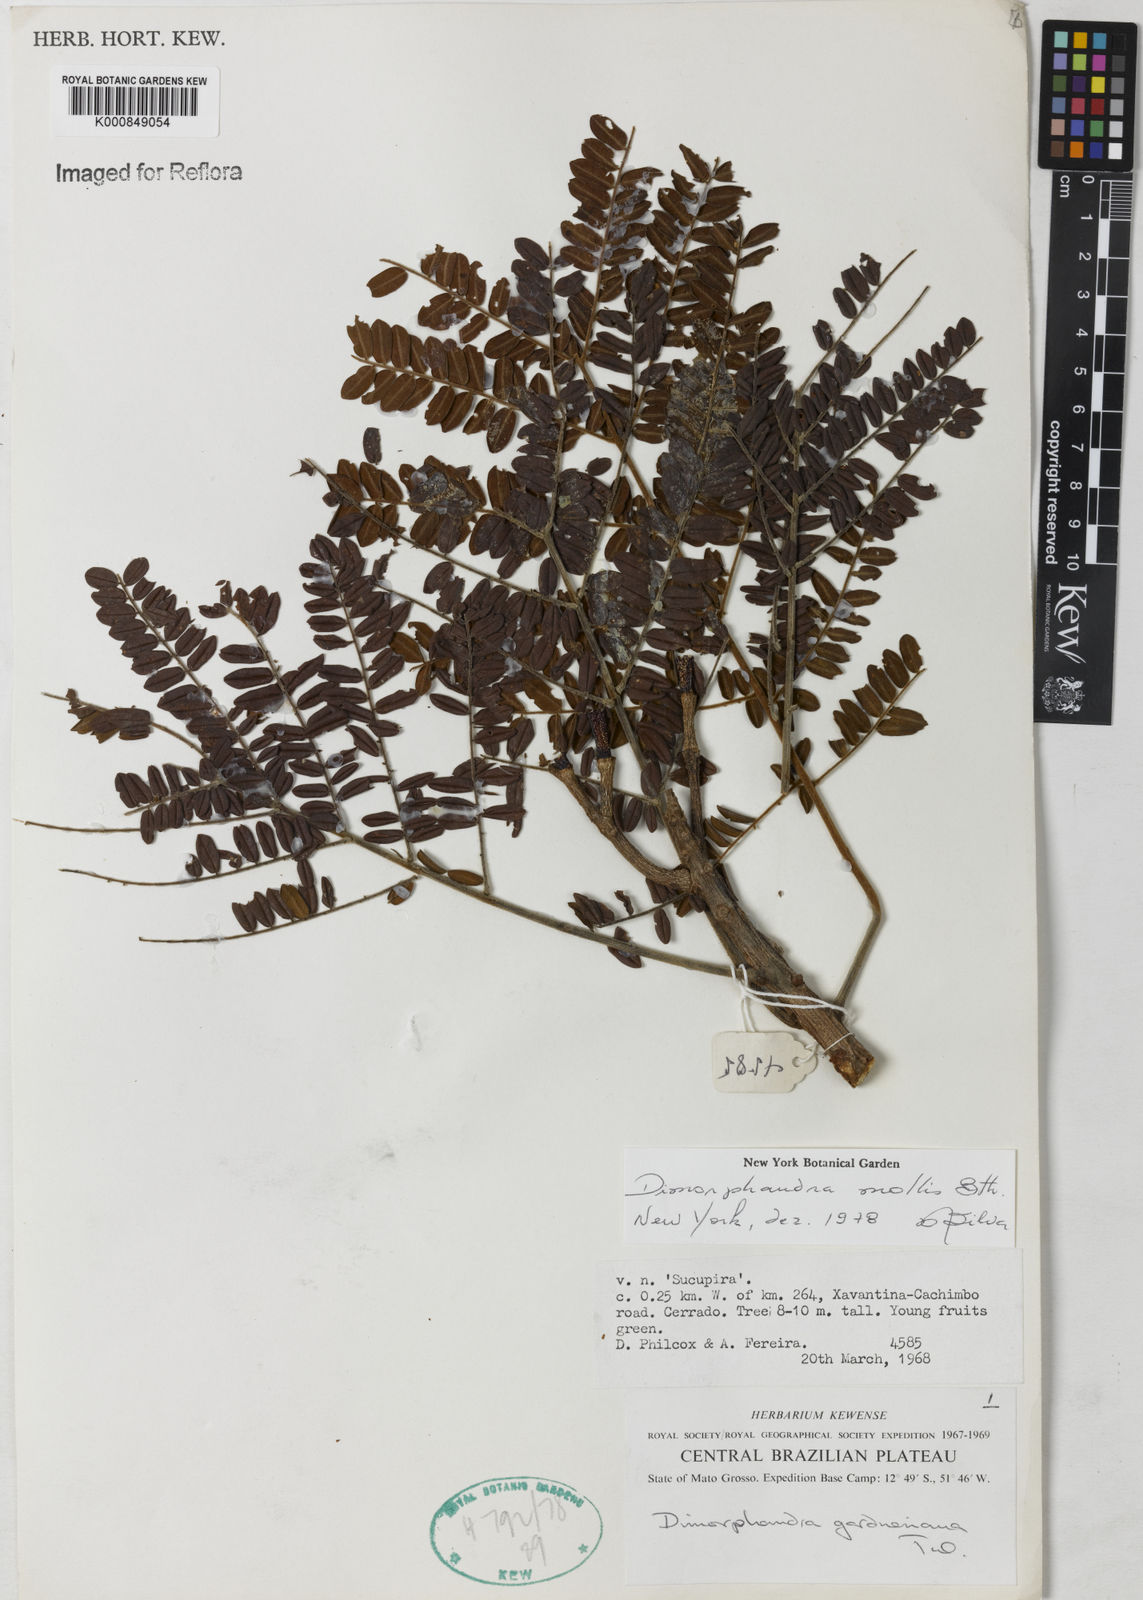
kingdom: Plantae
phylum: Tracheophyta
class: Magnoliopsida
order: Fabales
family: Fabaceae
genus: Dimorphandra
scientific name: Dimorphandra mollis
